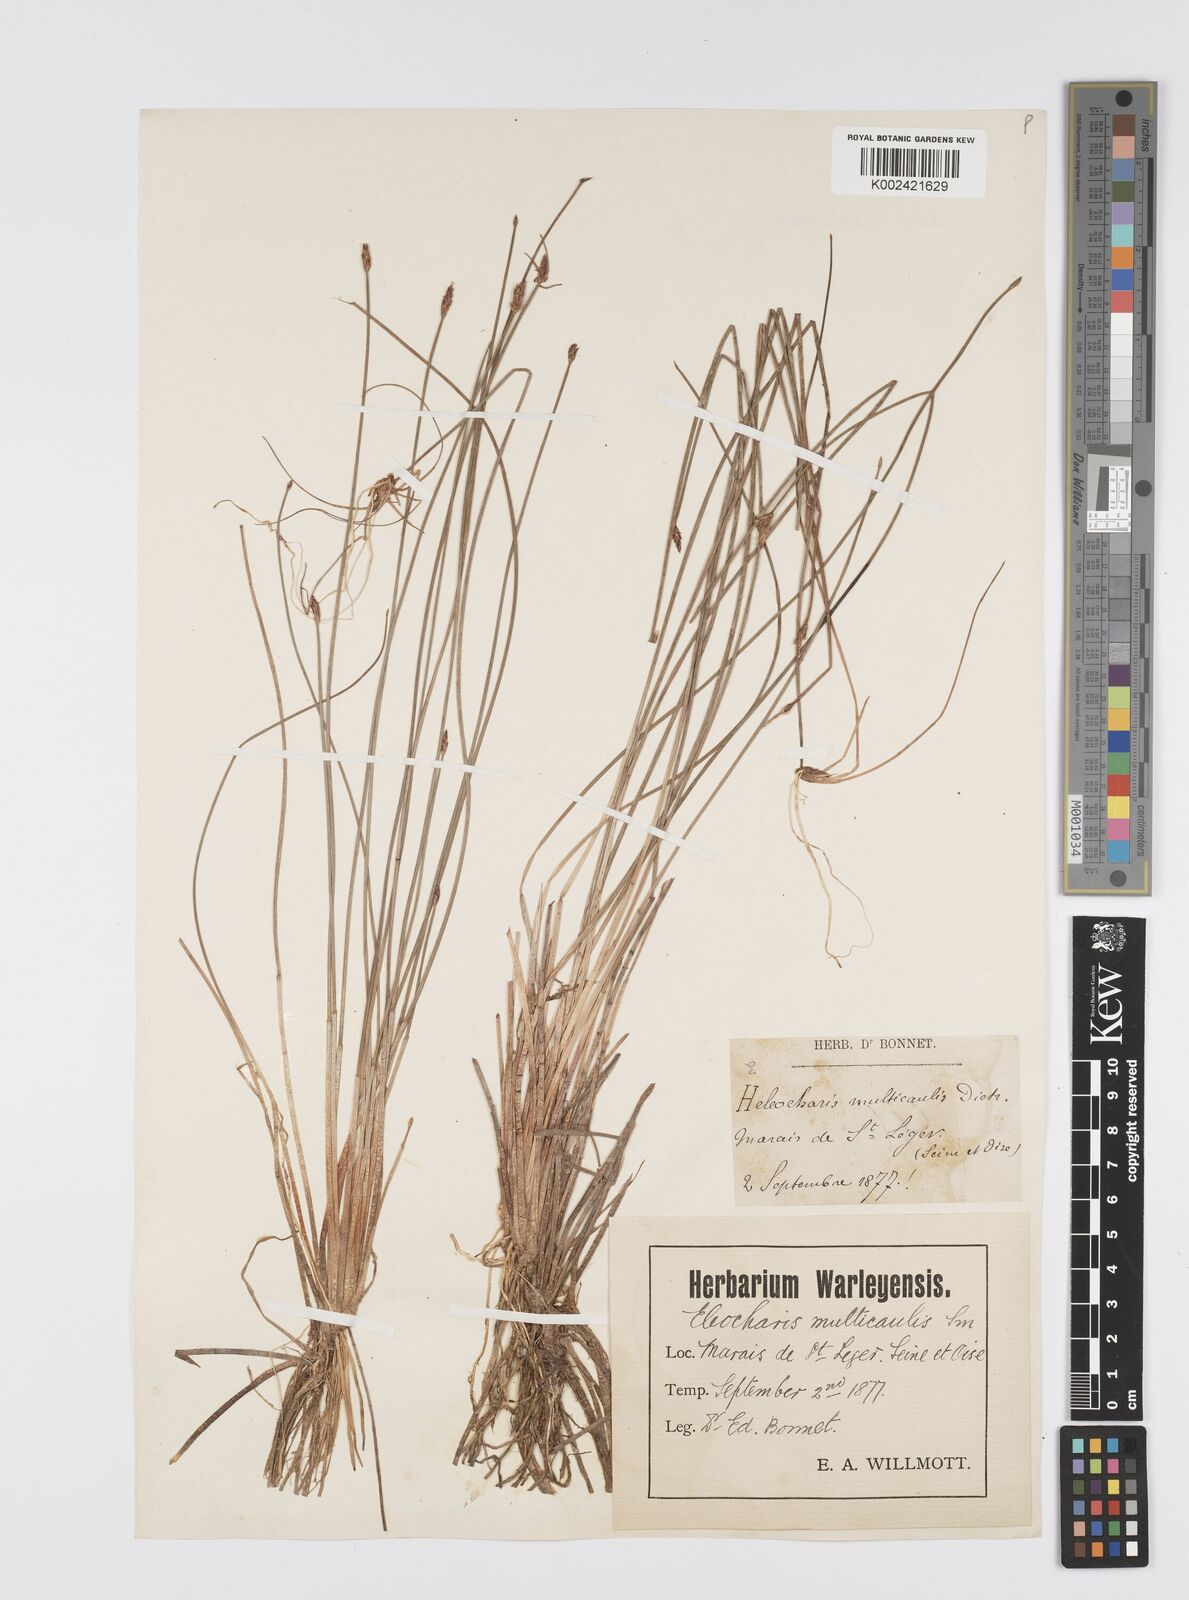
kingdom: Plantae
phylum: Tracheophyta
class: Liliopsida
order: Poales
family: Cyperaceae
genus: Eleocharis
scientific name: Eleocharis multicaulis
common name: Many-stalked spike-rush
